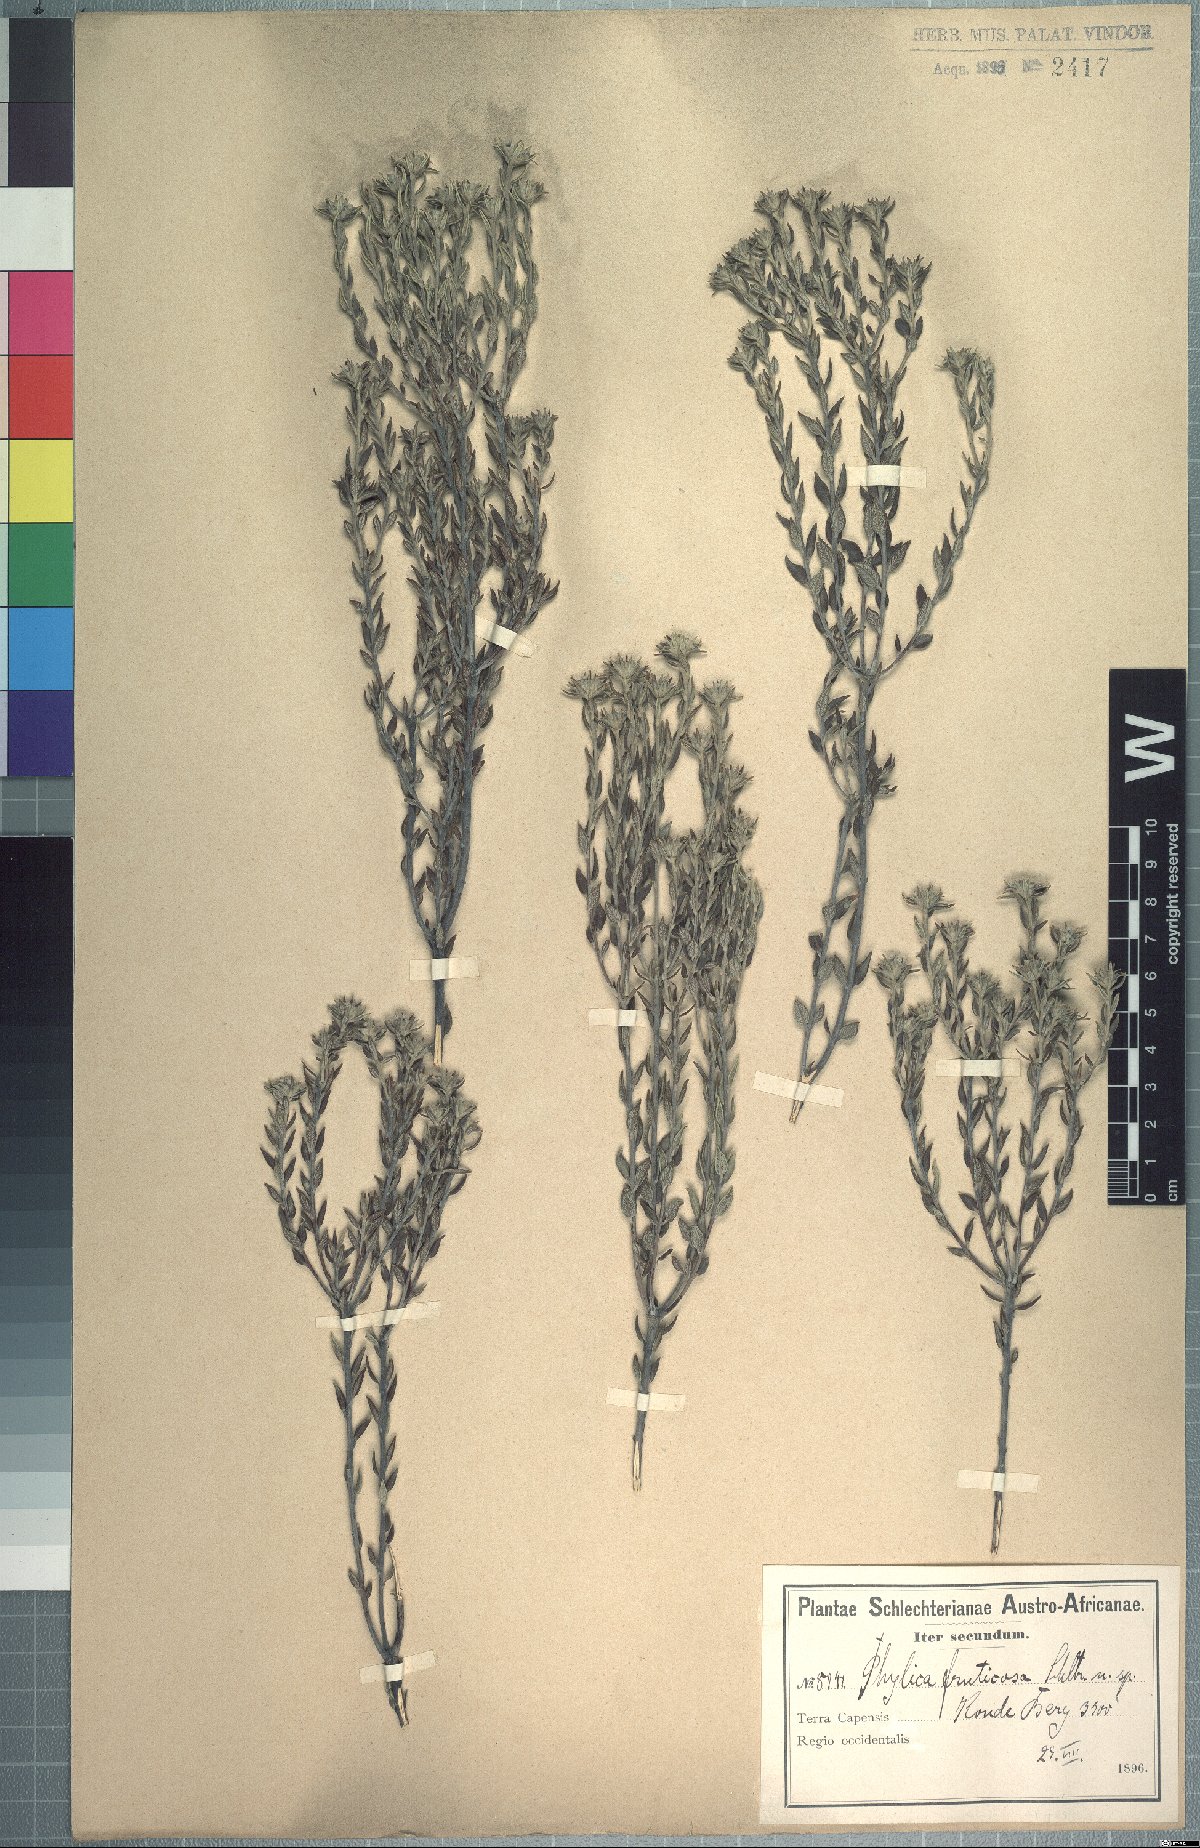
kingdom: Plantae
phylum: Tracheophyta
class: Magnoliopsida
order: Rosales
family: Rhamnaceae
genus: Phylica
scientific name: Phylica fruticosa
